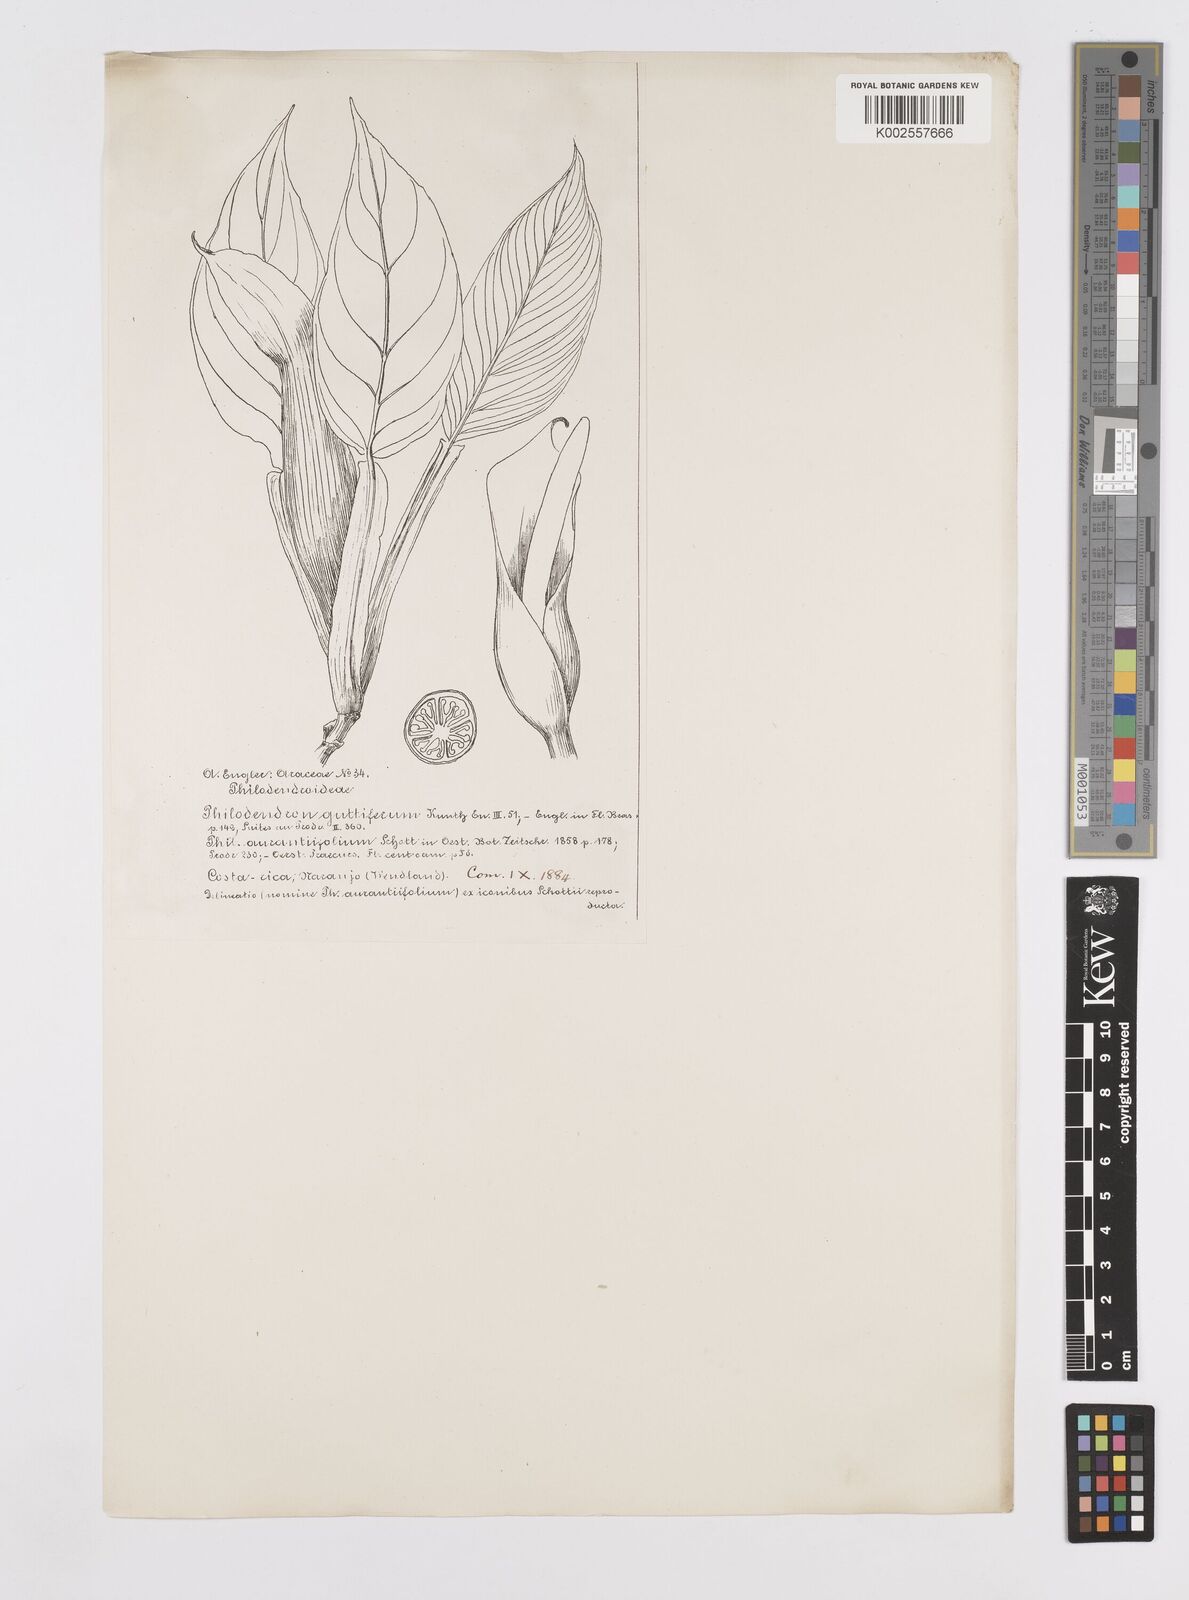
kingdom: Plantae
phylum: Tracheophyta
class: Liliopsida
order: Alismatales
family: Araceae
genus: Philodendron
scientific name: Philodendron guttiferum
